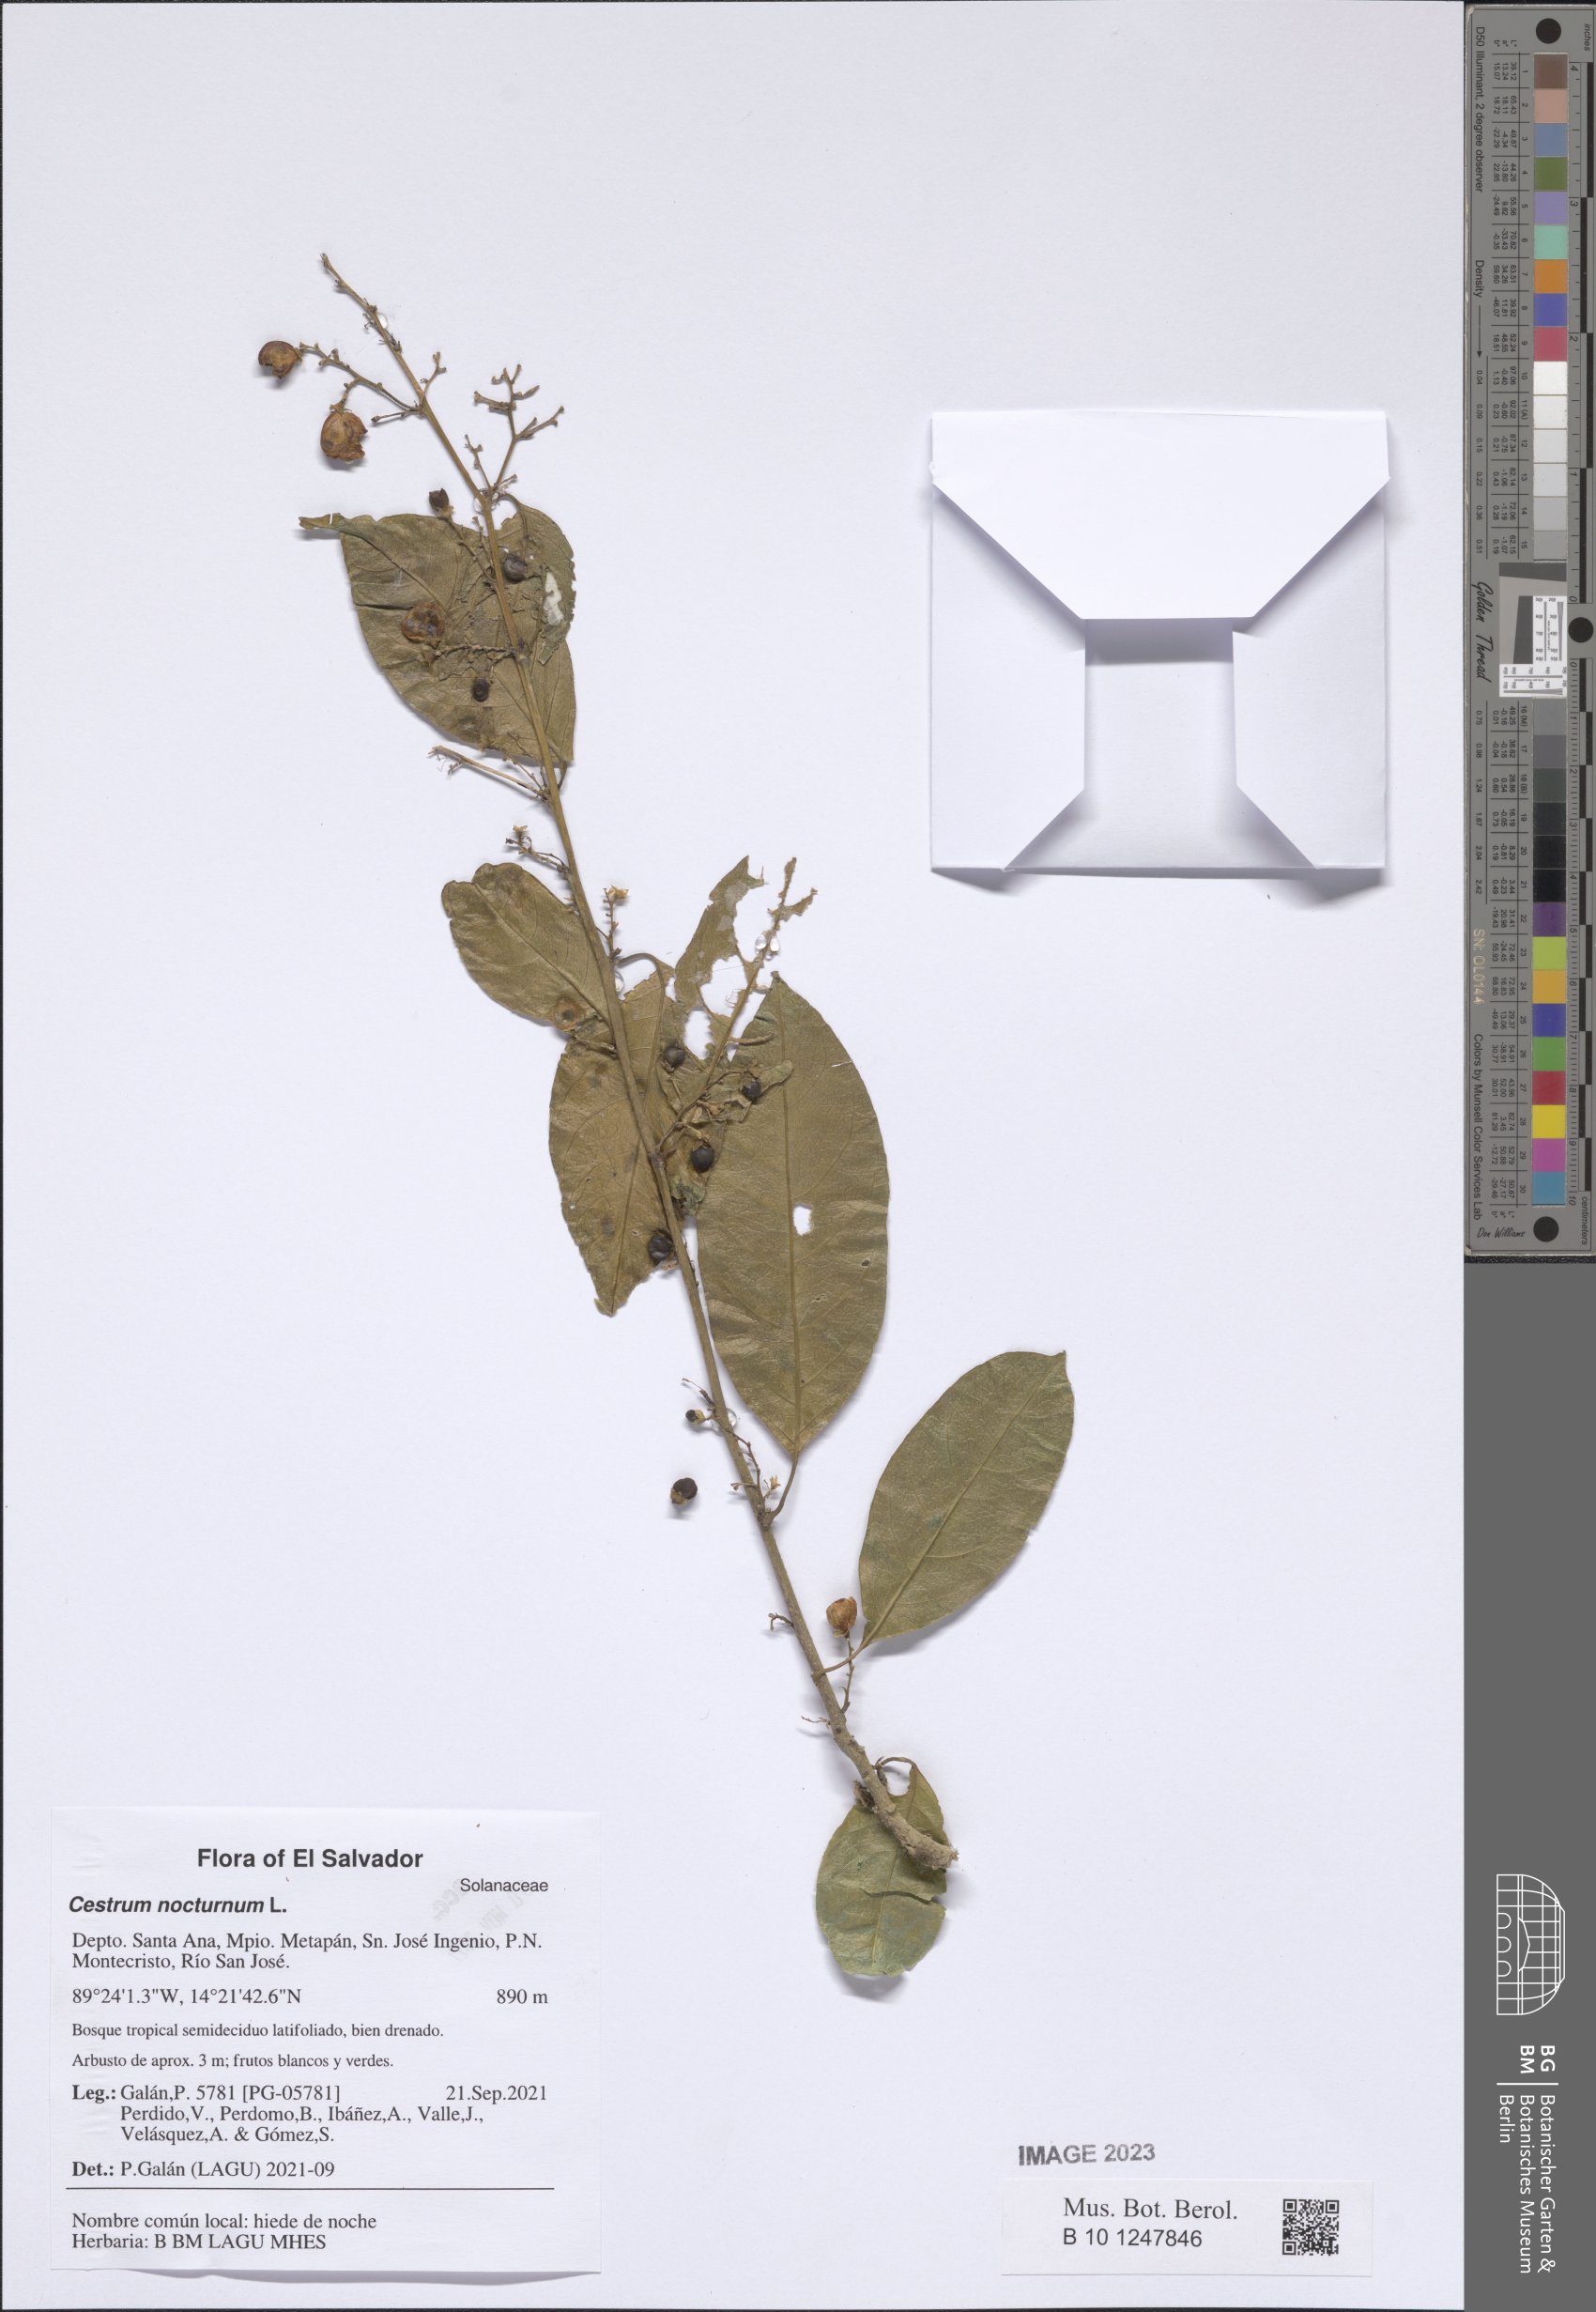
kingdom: Plantae
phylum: Tracheophyta
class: Magnoliopsida
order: Solanales
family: Solanaceae
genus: Cestrum
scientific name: Cestrum nocturnum
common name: Night jessamine
